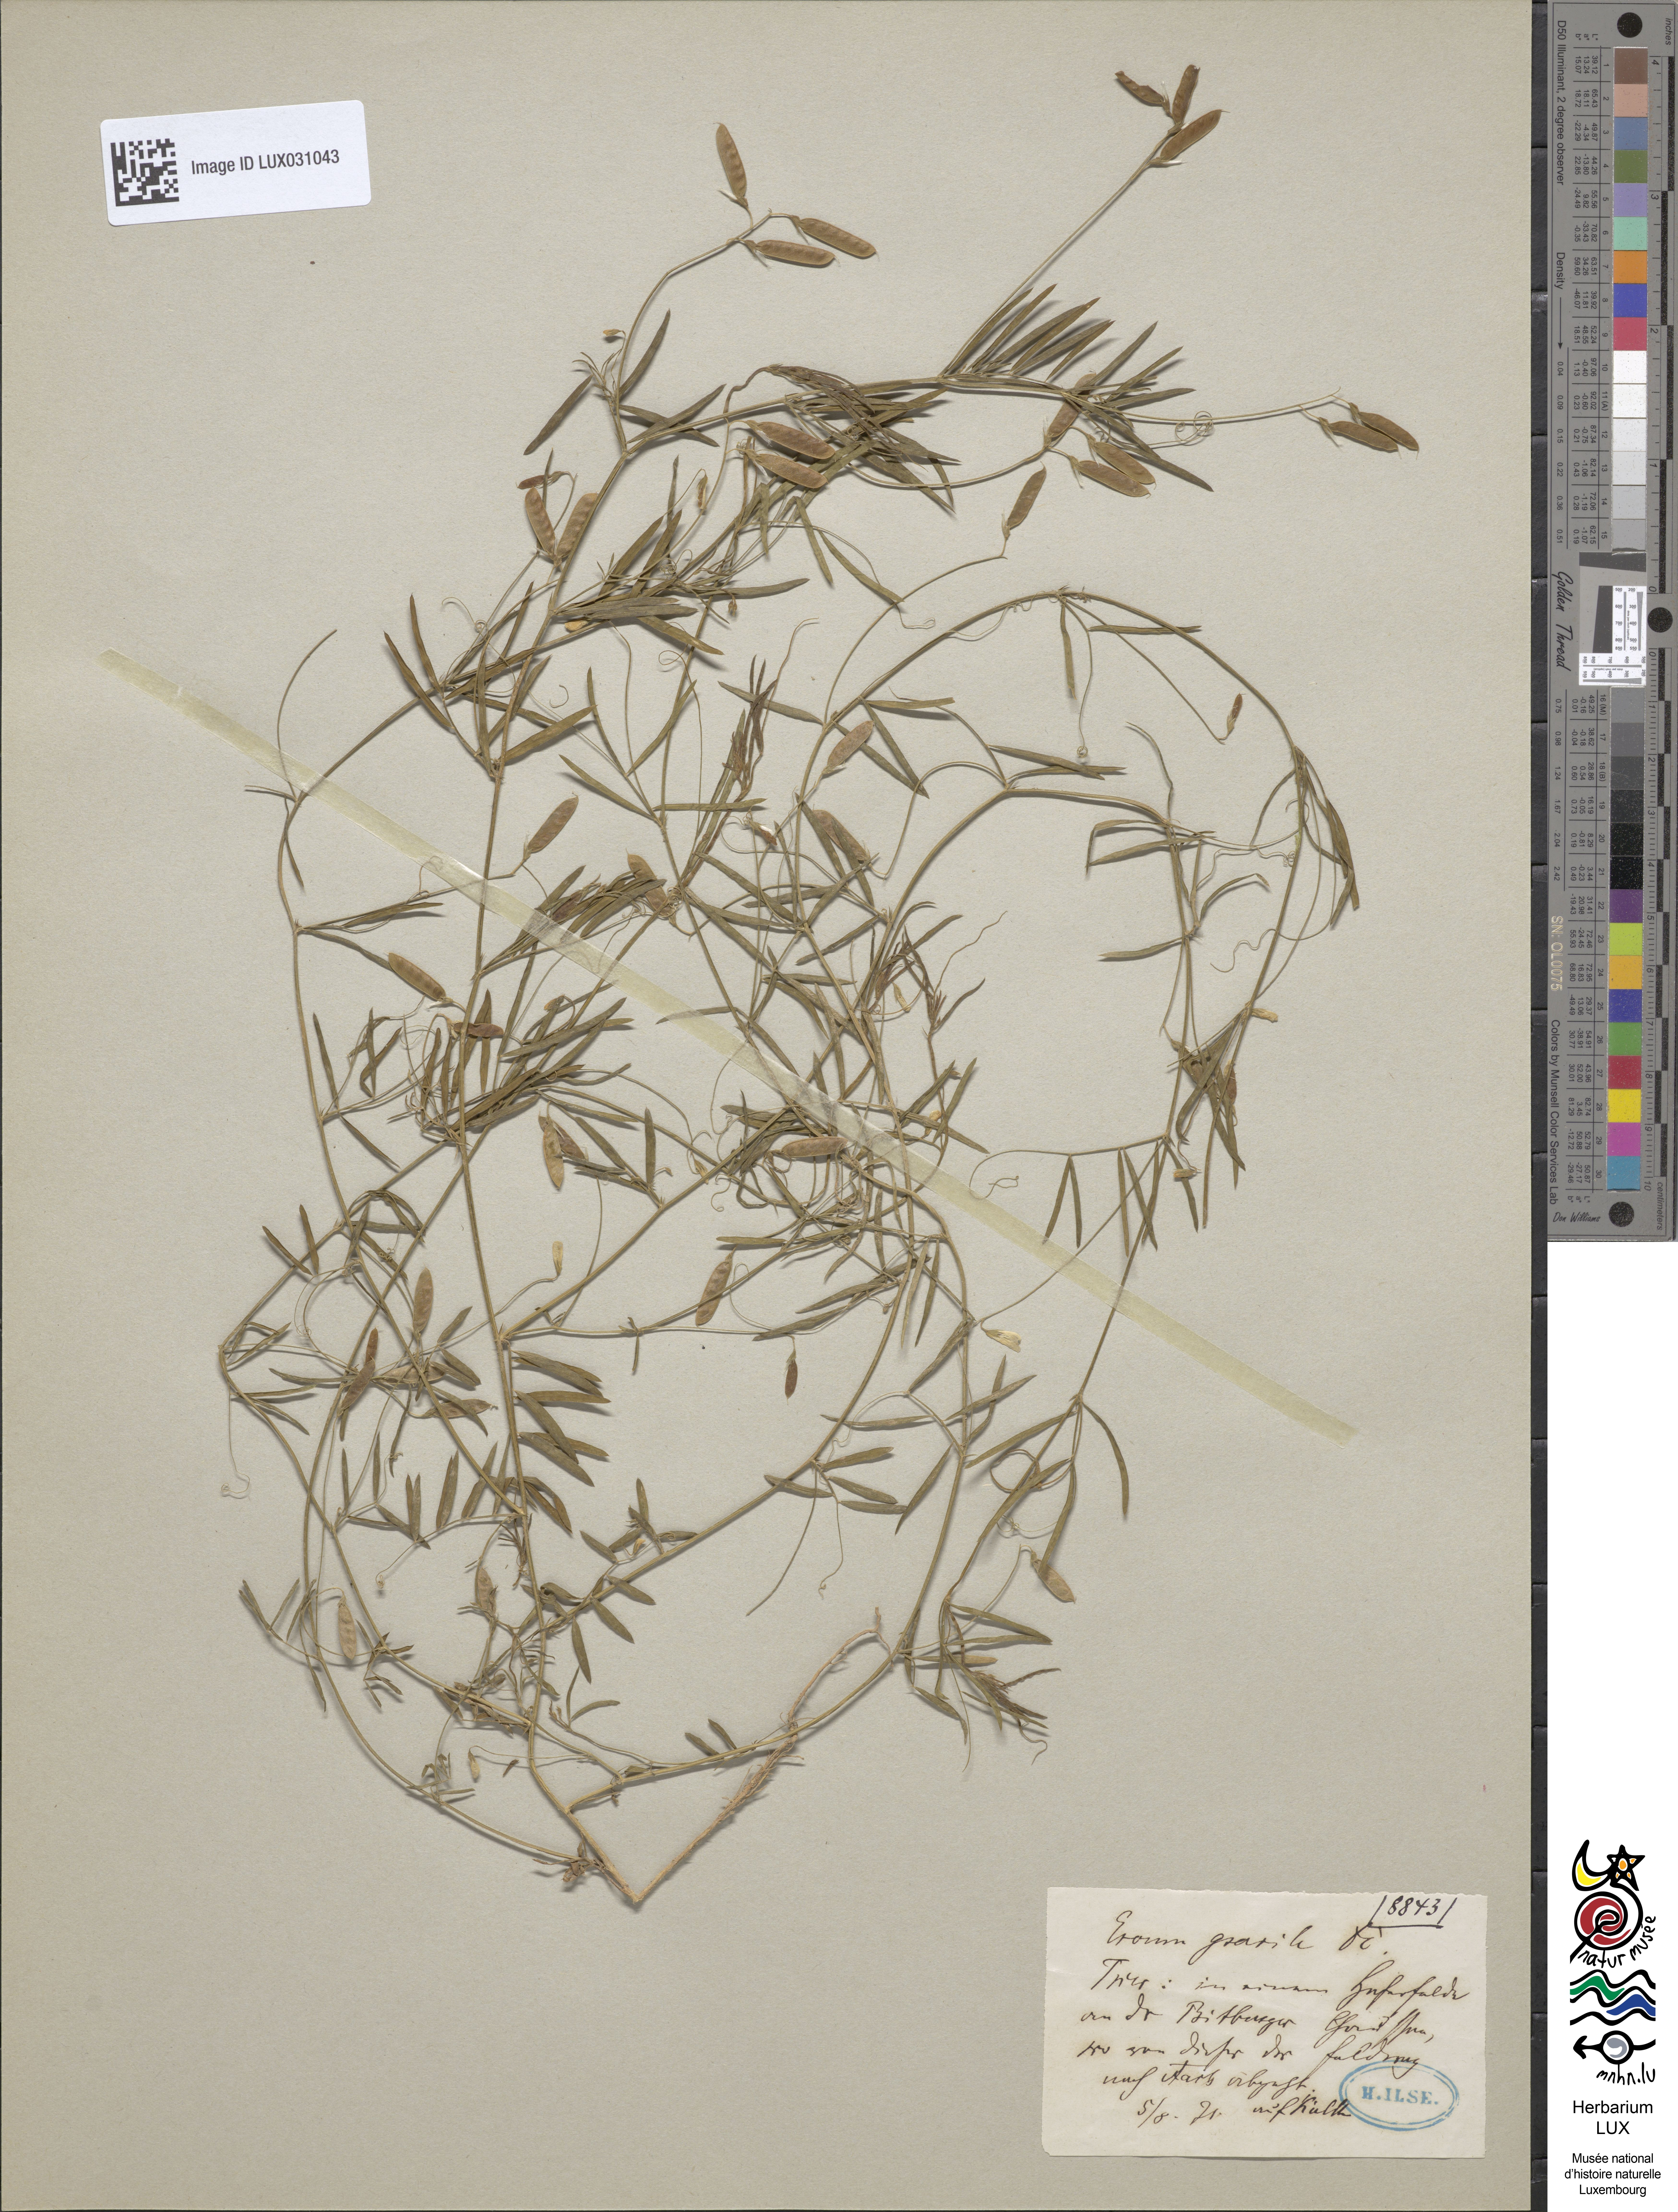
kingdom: Plantae
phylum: Tracheophyta
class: Magnoliopsida
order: Fabales
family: Fabaceae
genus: Vicia
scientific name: Vicia parviflora
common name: Slender tare
